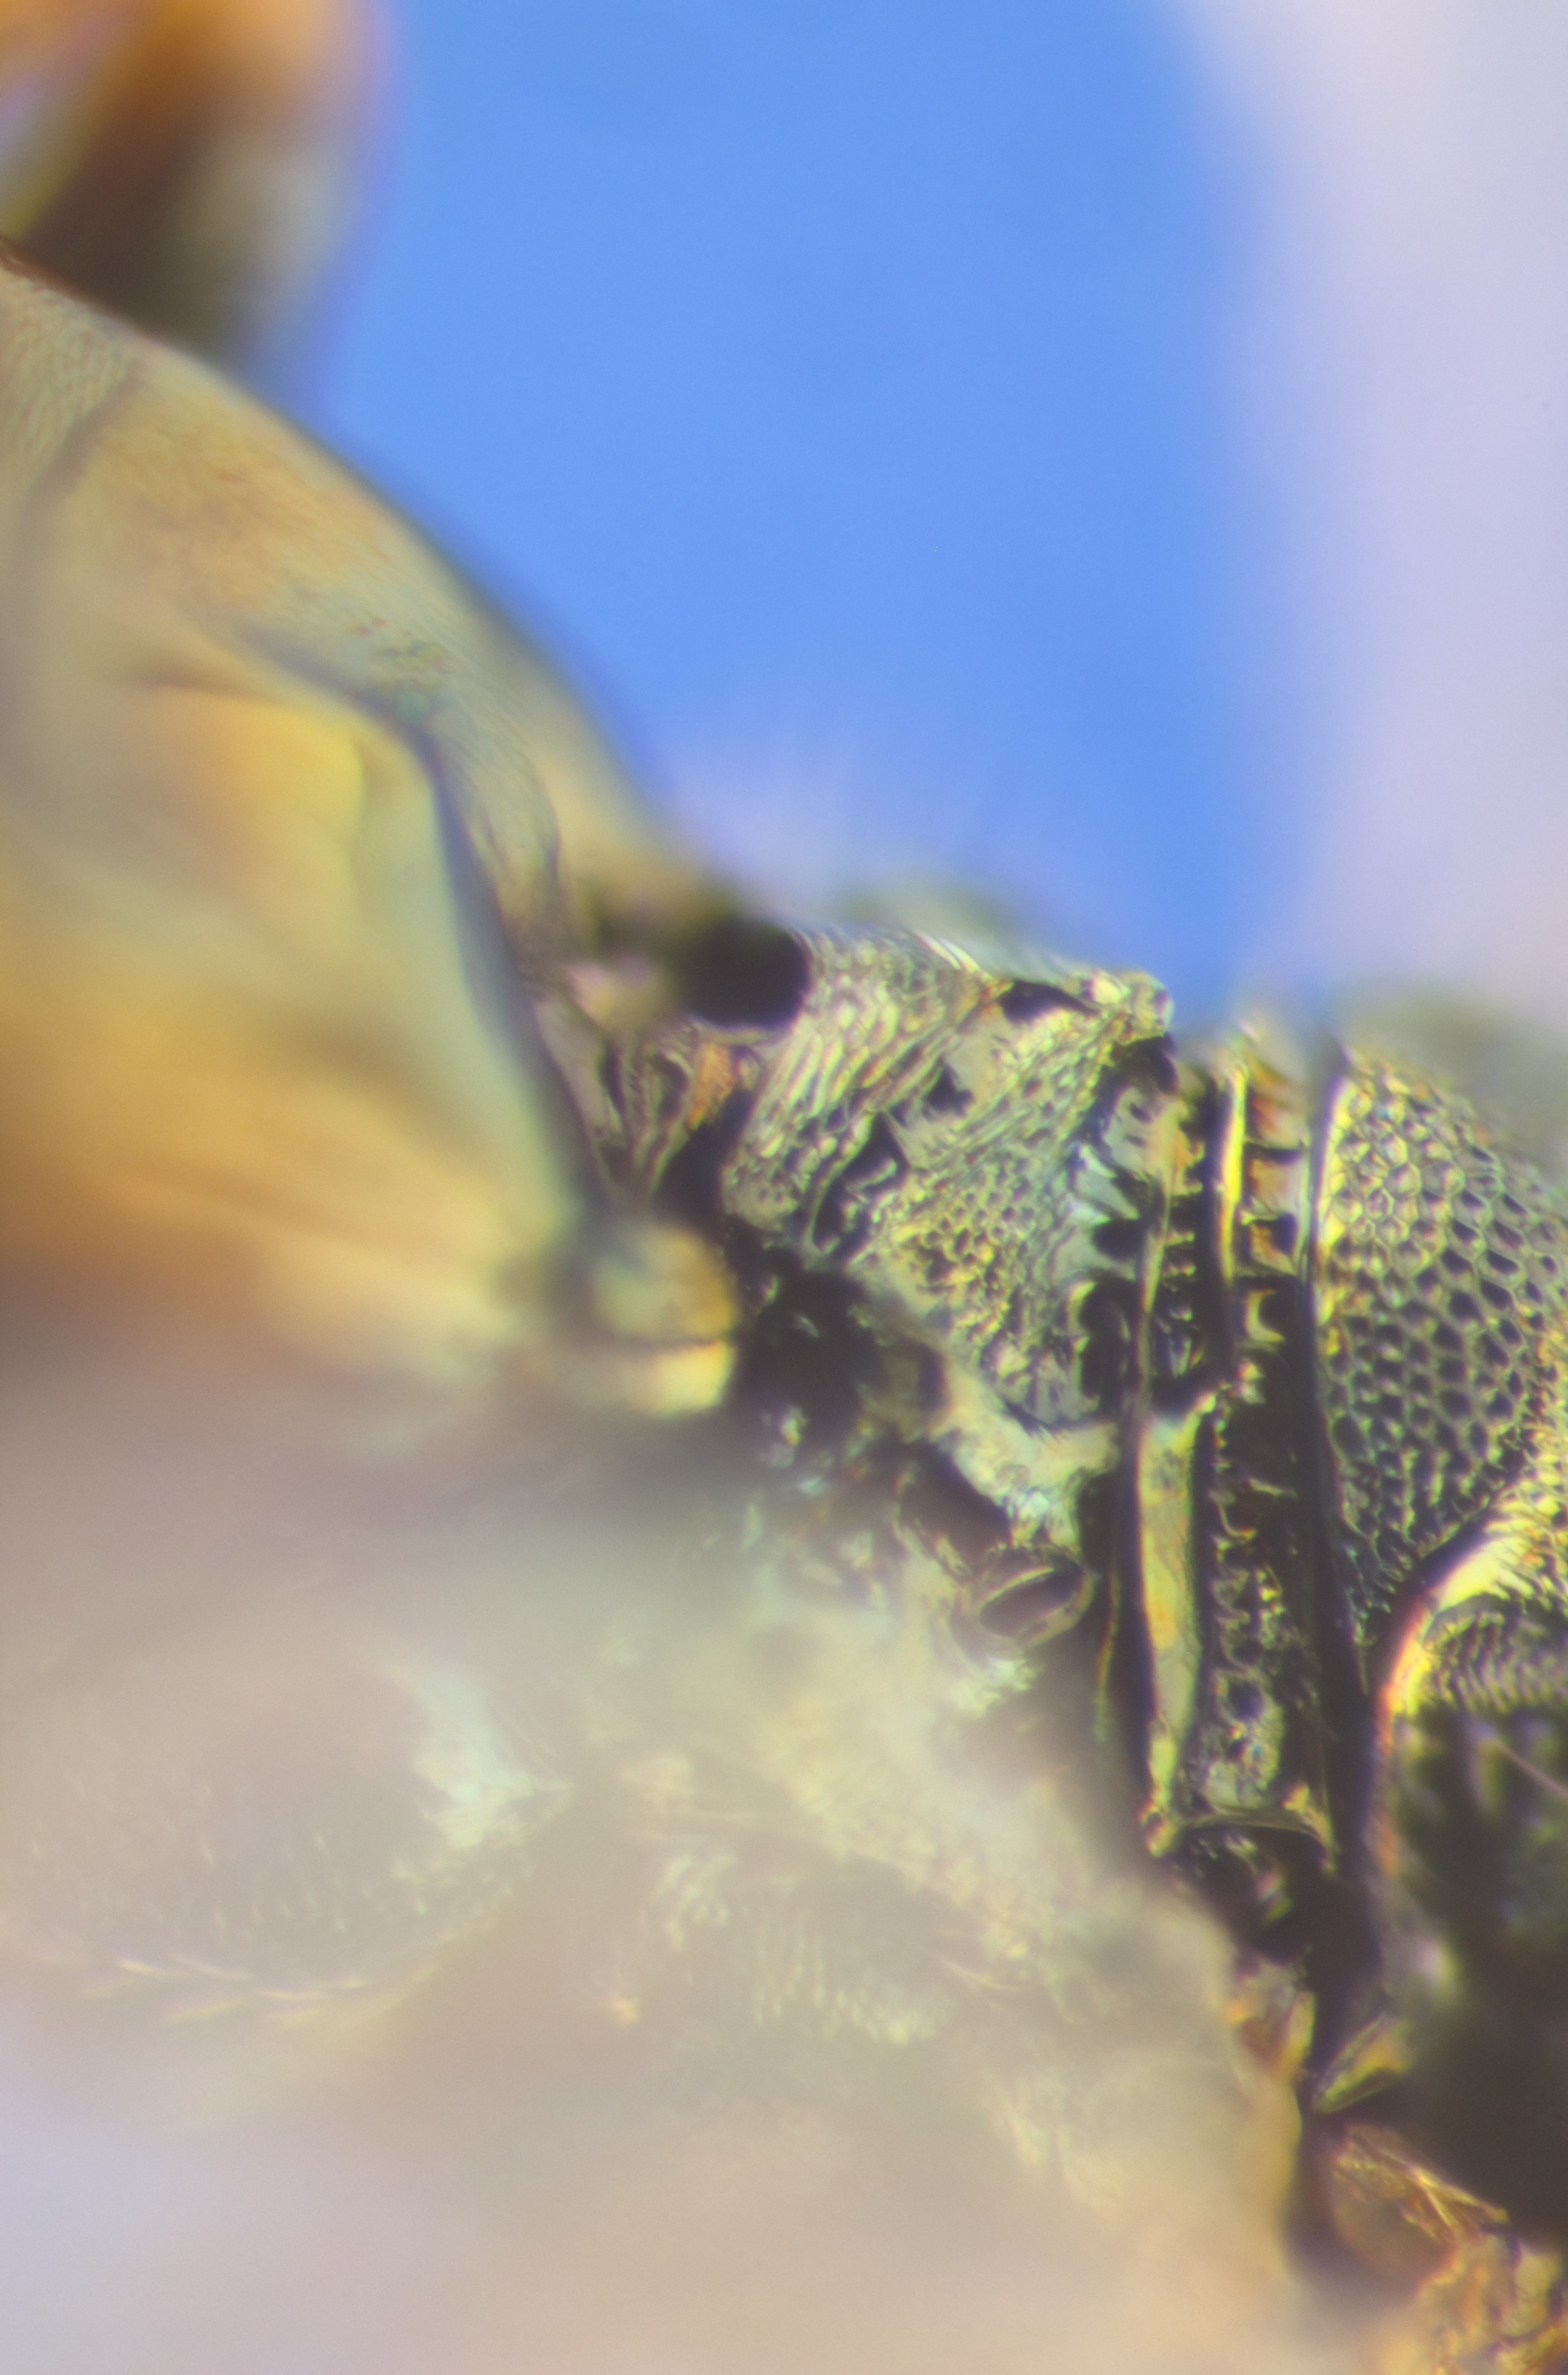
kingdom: Animalia
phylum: Arthropoda
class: Insecta
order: Hymenoptera
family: Pteromalidae
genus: Pteromalus
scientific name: Pteromalus elevatus
